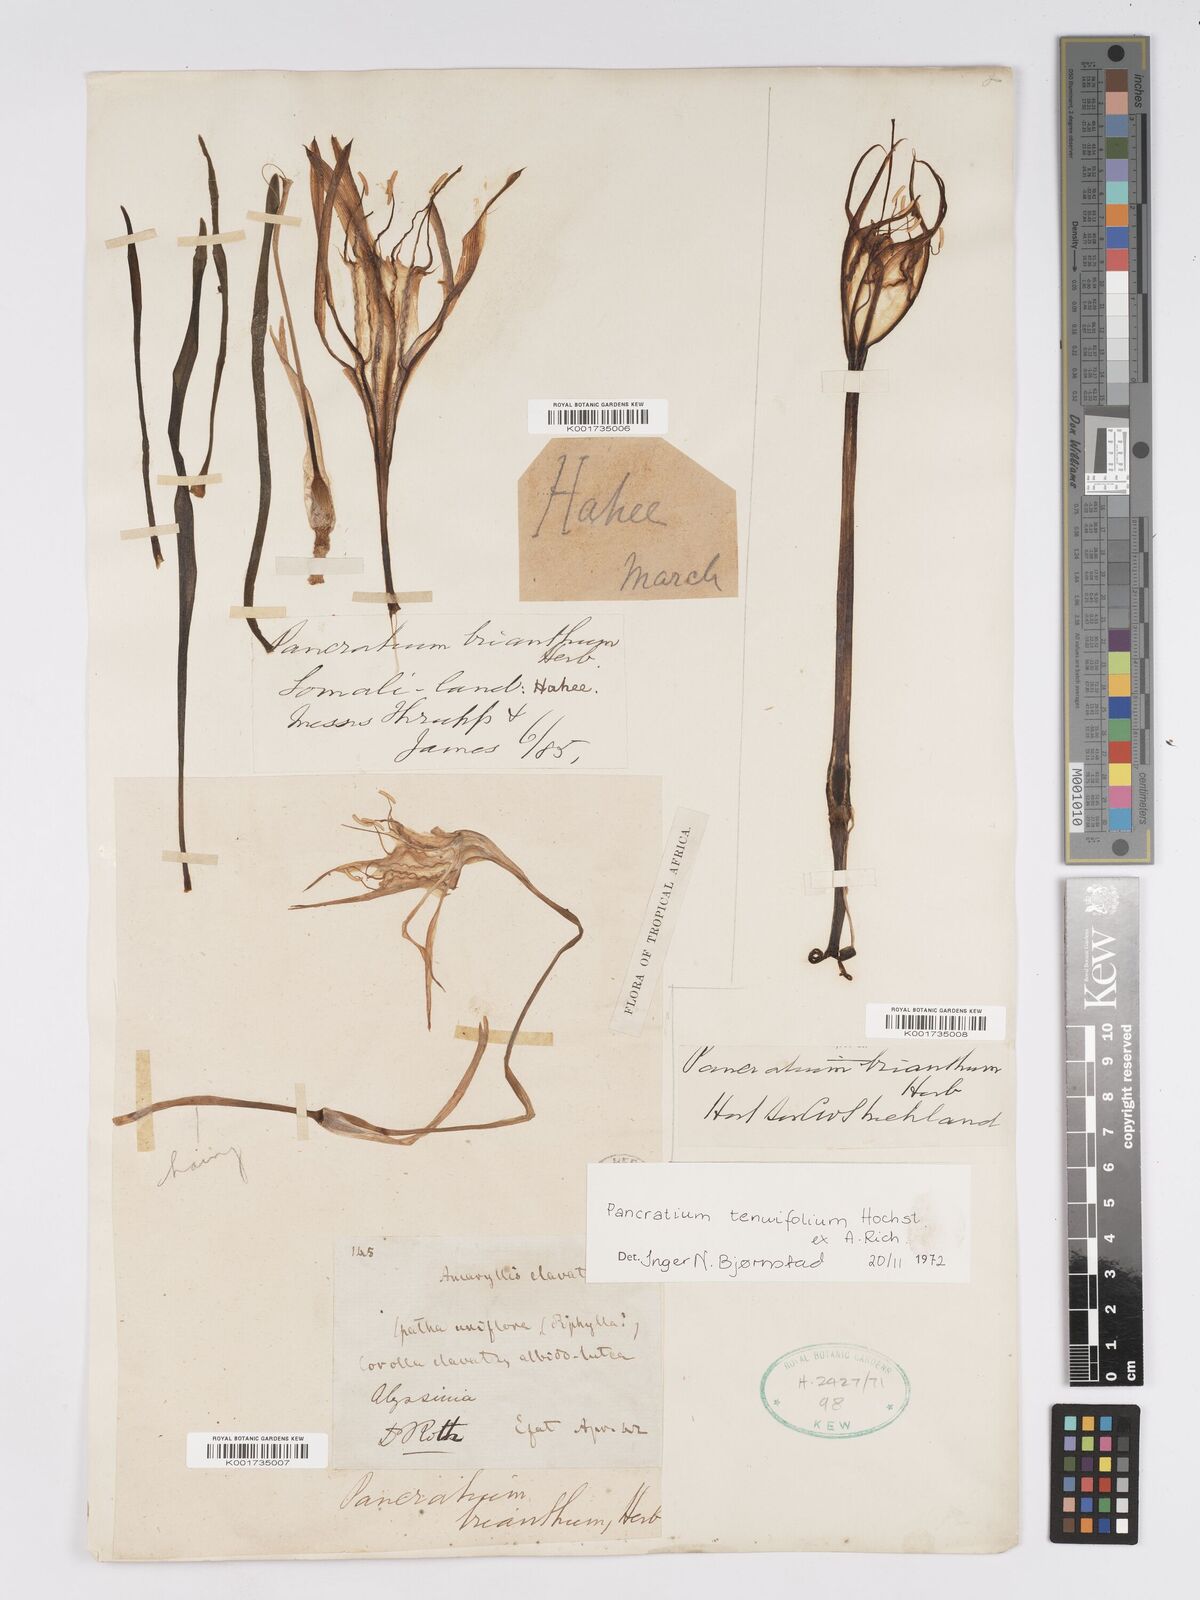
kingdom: Plantae
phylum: Tracheophyta
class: Liliopsida
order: Asparagales
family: Amaryllidaceae
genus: Pancratium
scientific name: Pancratium tenuifolium
